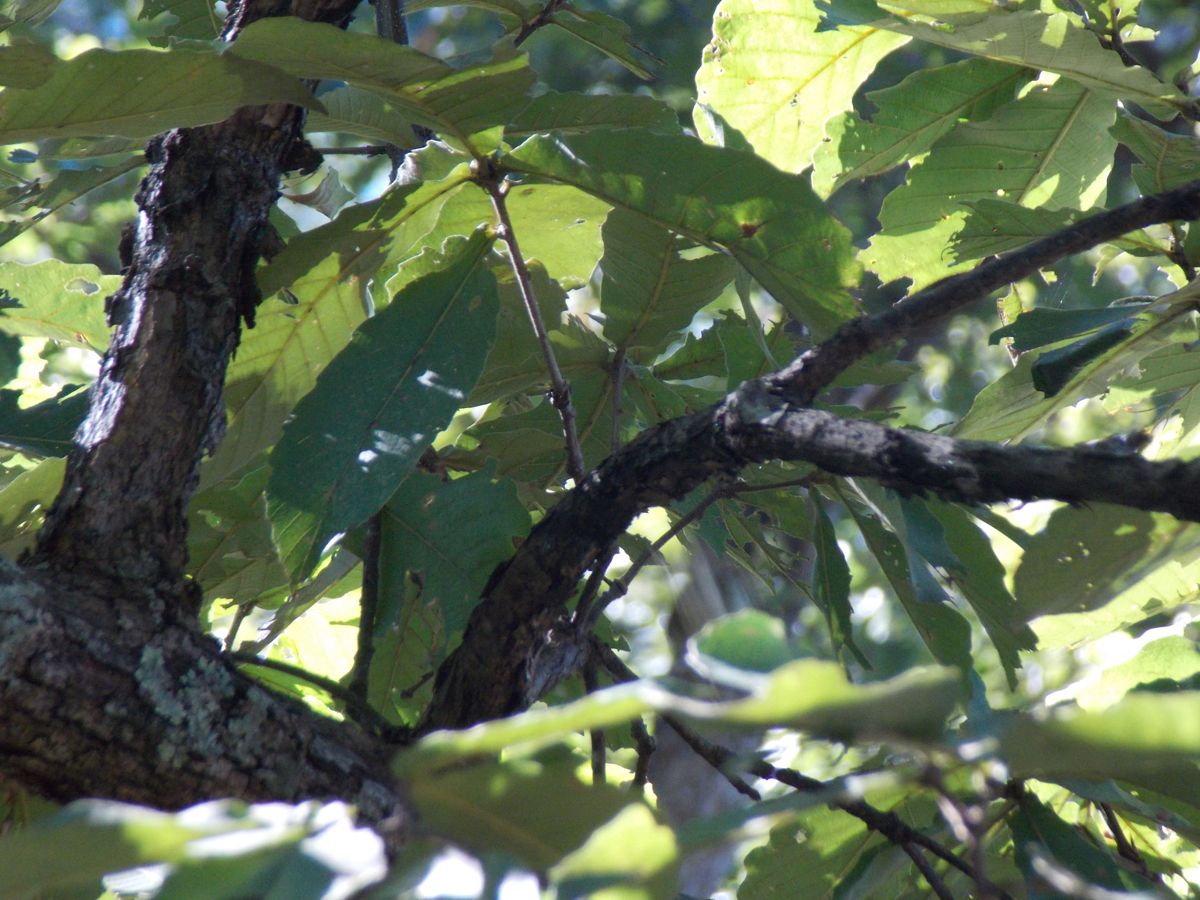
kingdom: Plantae
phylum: Tracheophyta
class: Magnoliopsida
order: Asterales
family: Asteraceae
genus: Verbesina
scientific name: Verbesina turbacensis
